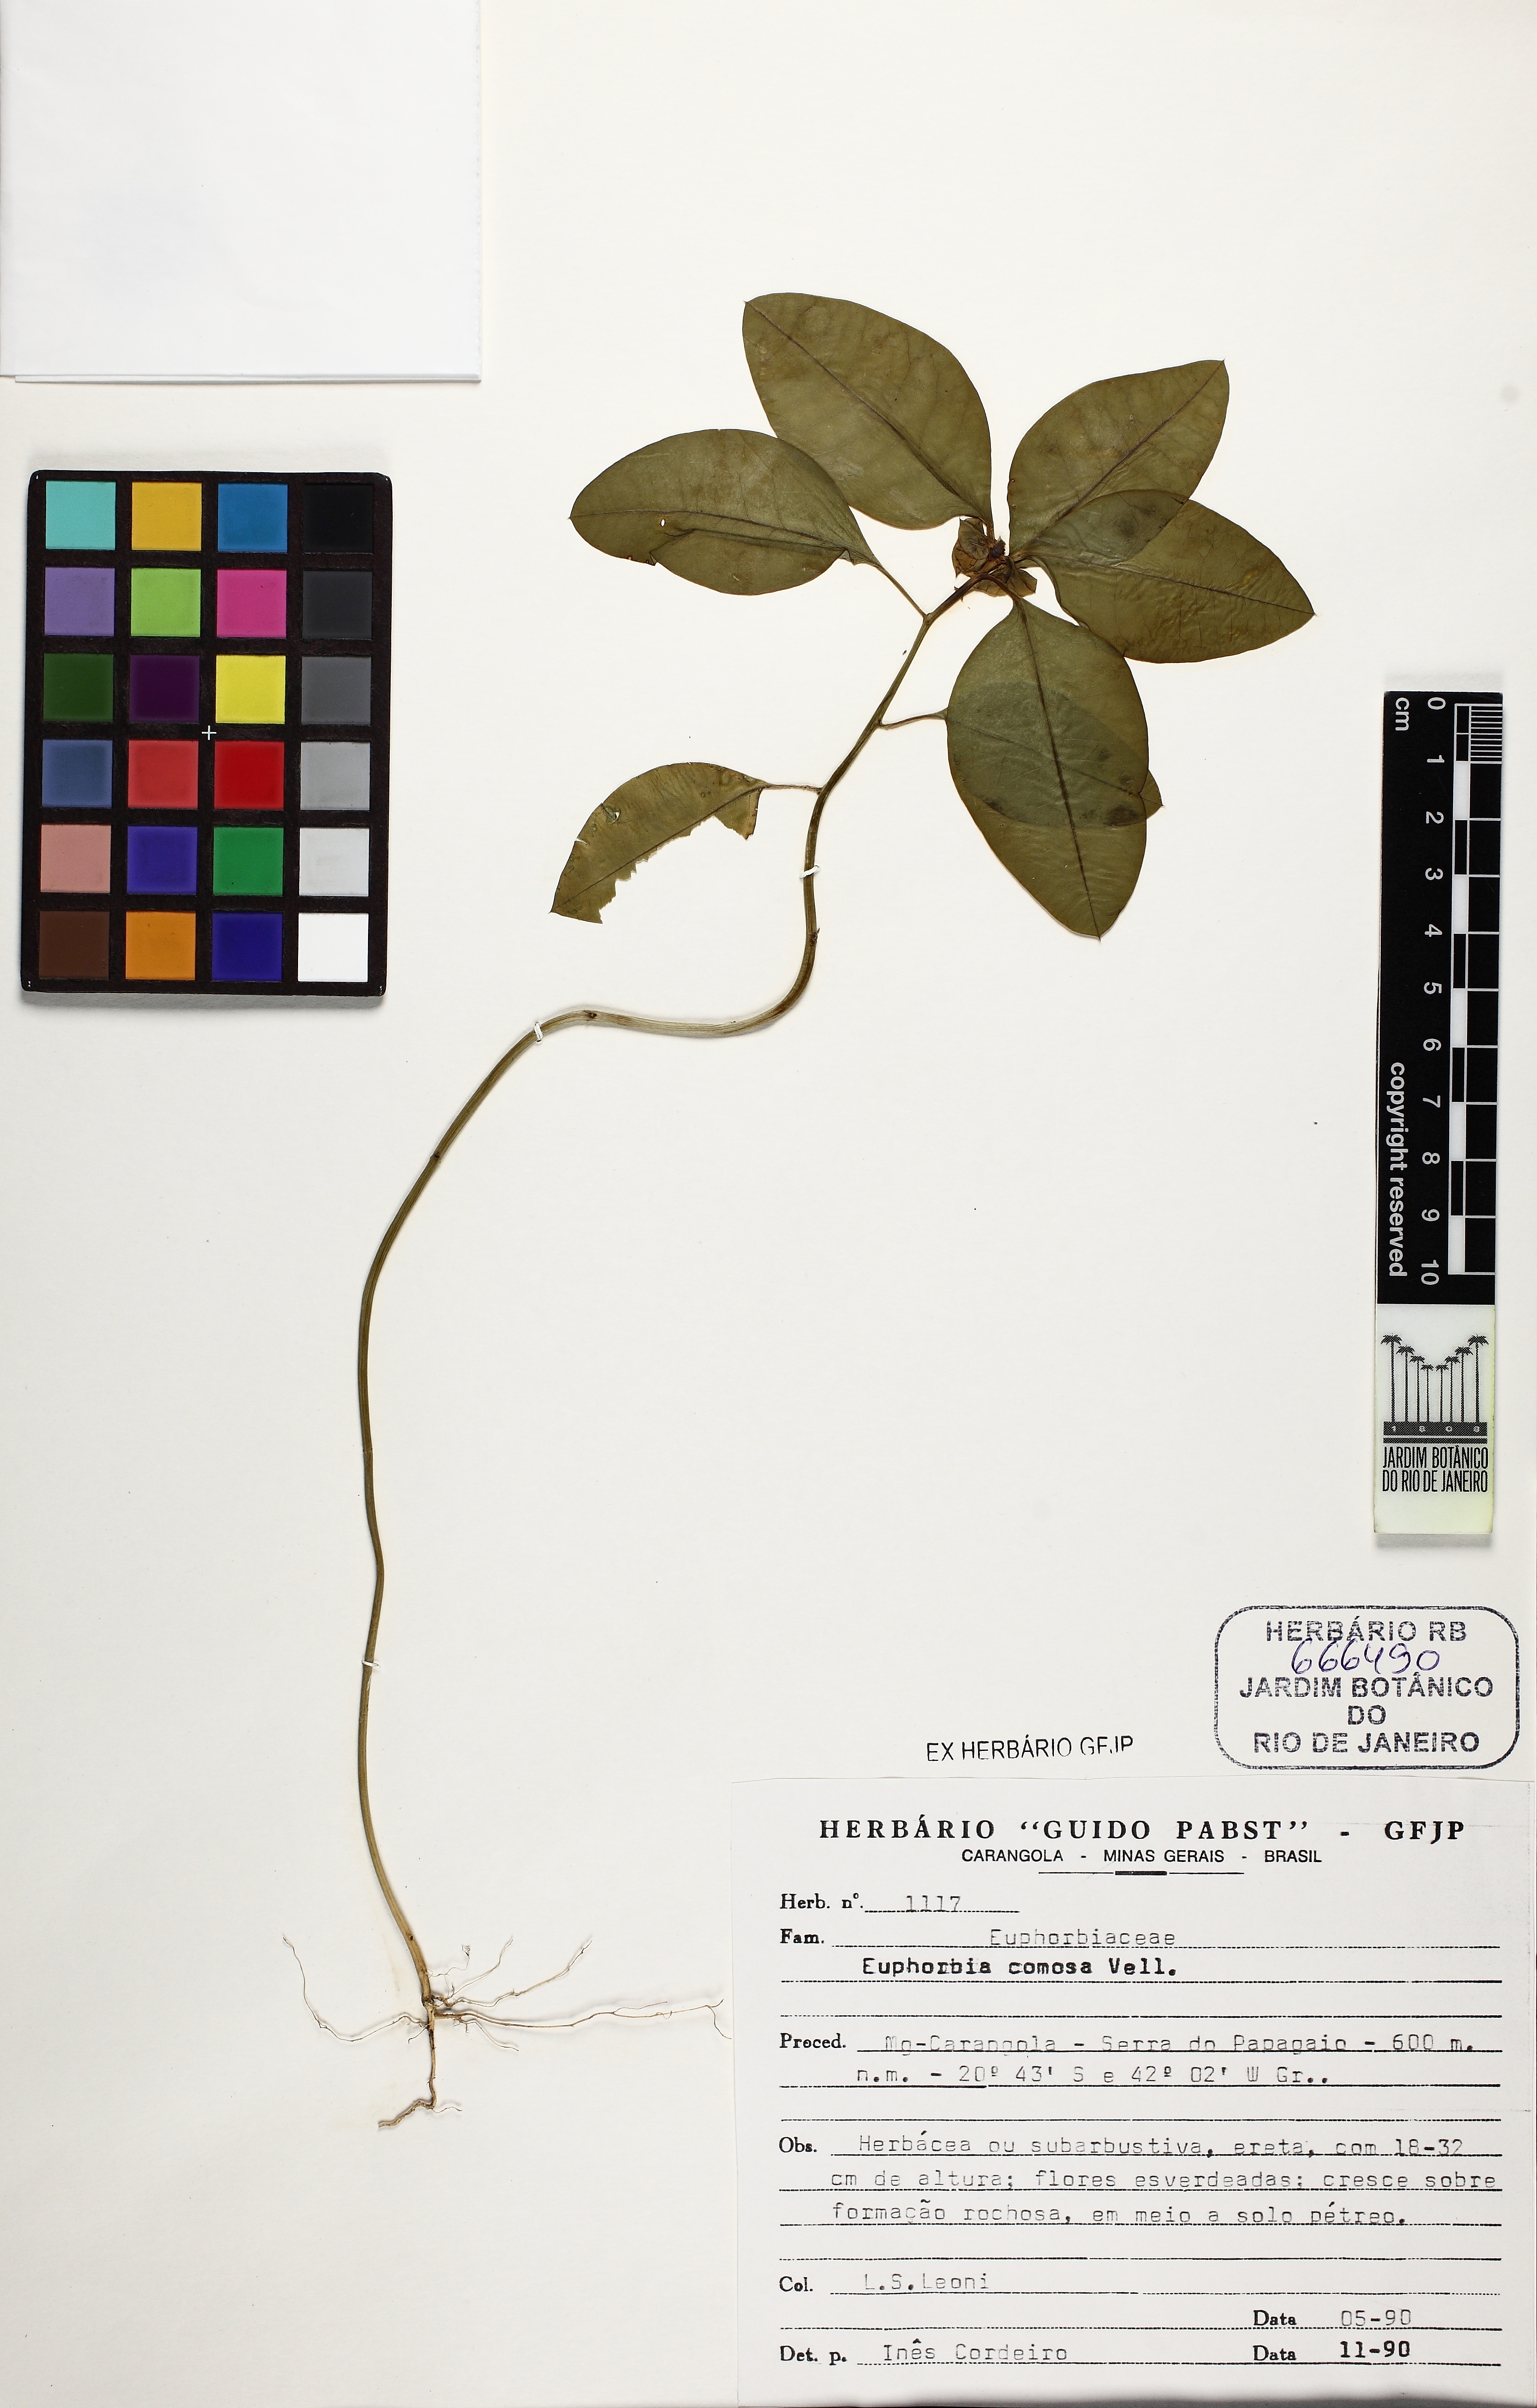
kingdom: Plantae
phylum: Tracheophyta
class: Magnoliopsida
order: Malpighiales
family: Euphorbiaceae
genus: Euphorbia
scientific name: Euphorbia comosa
